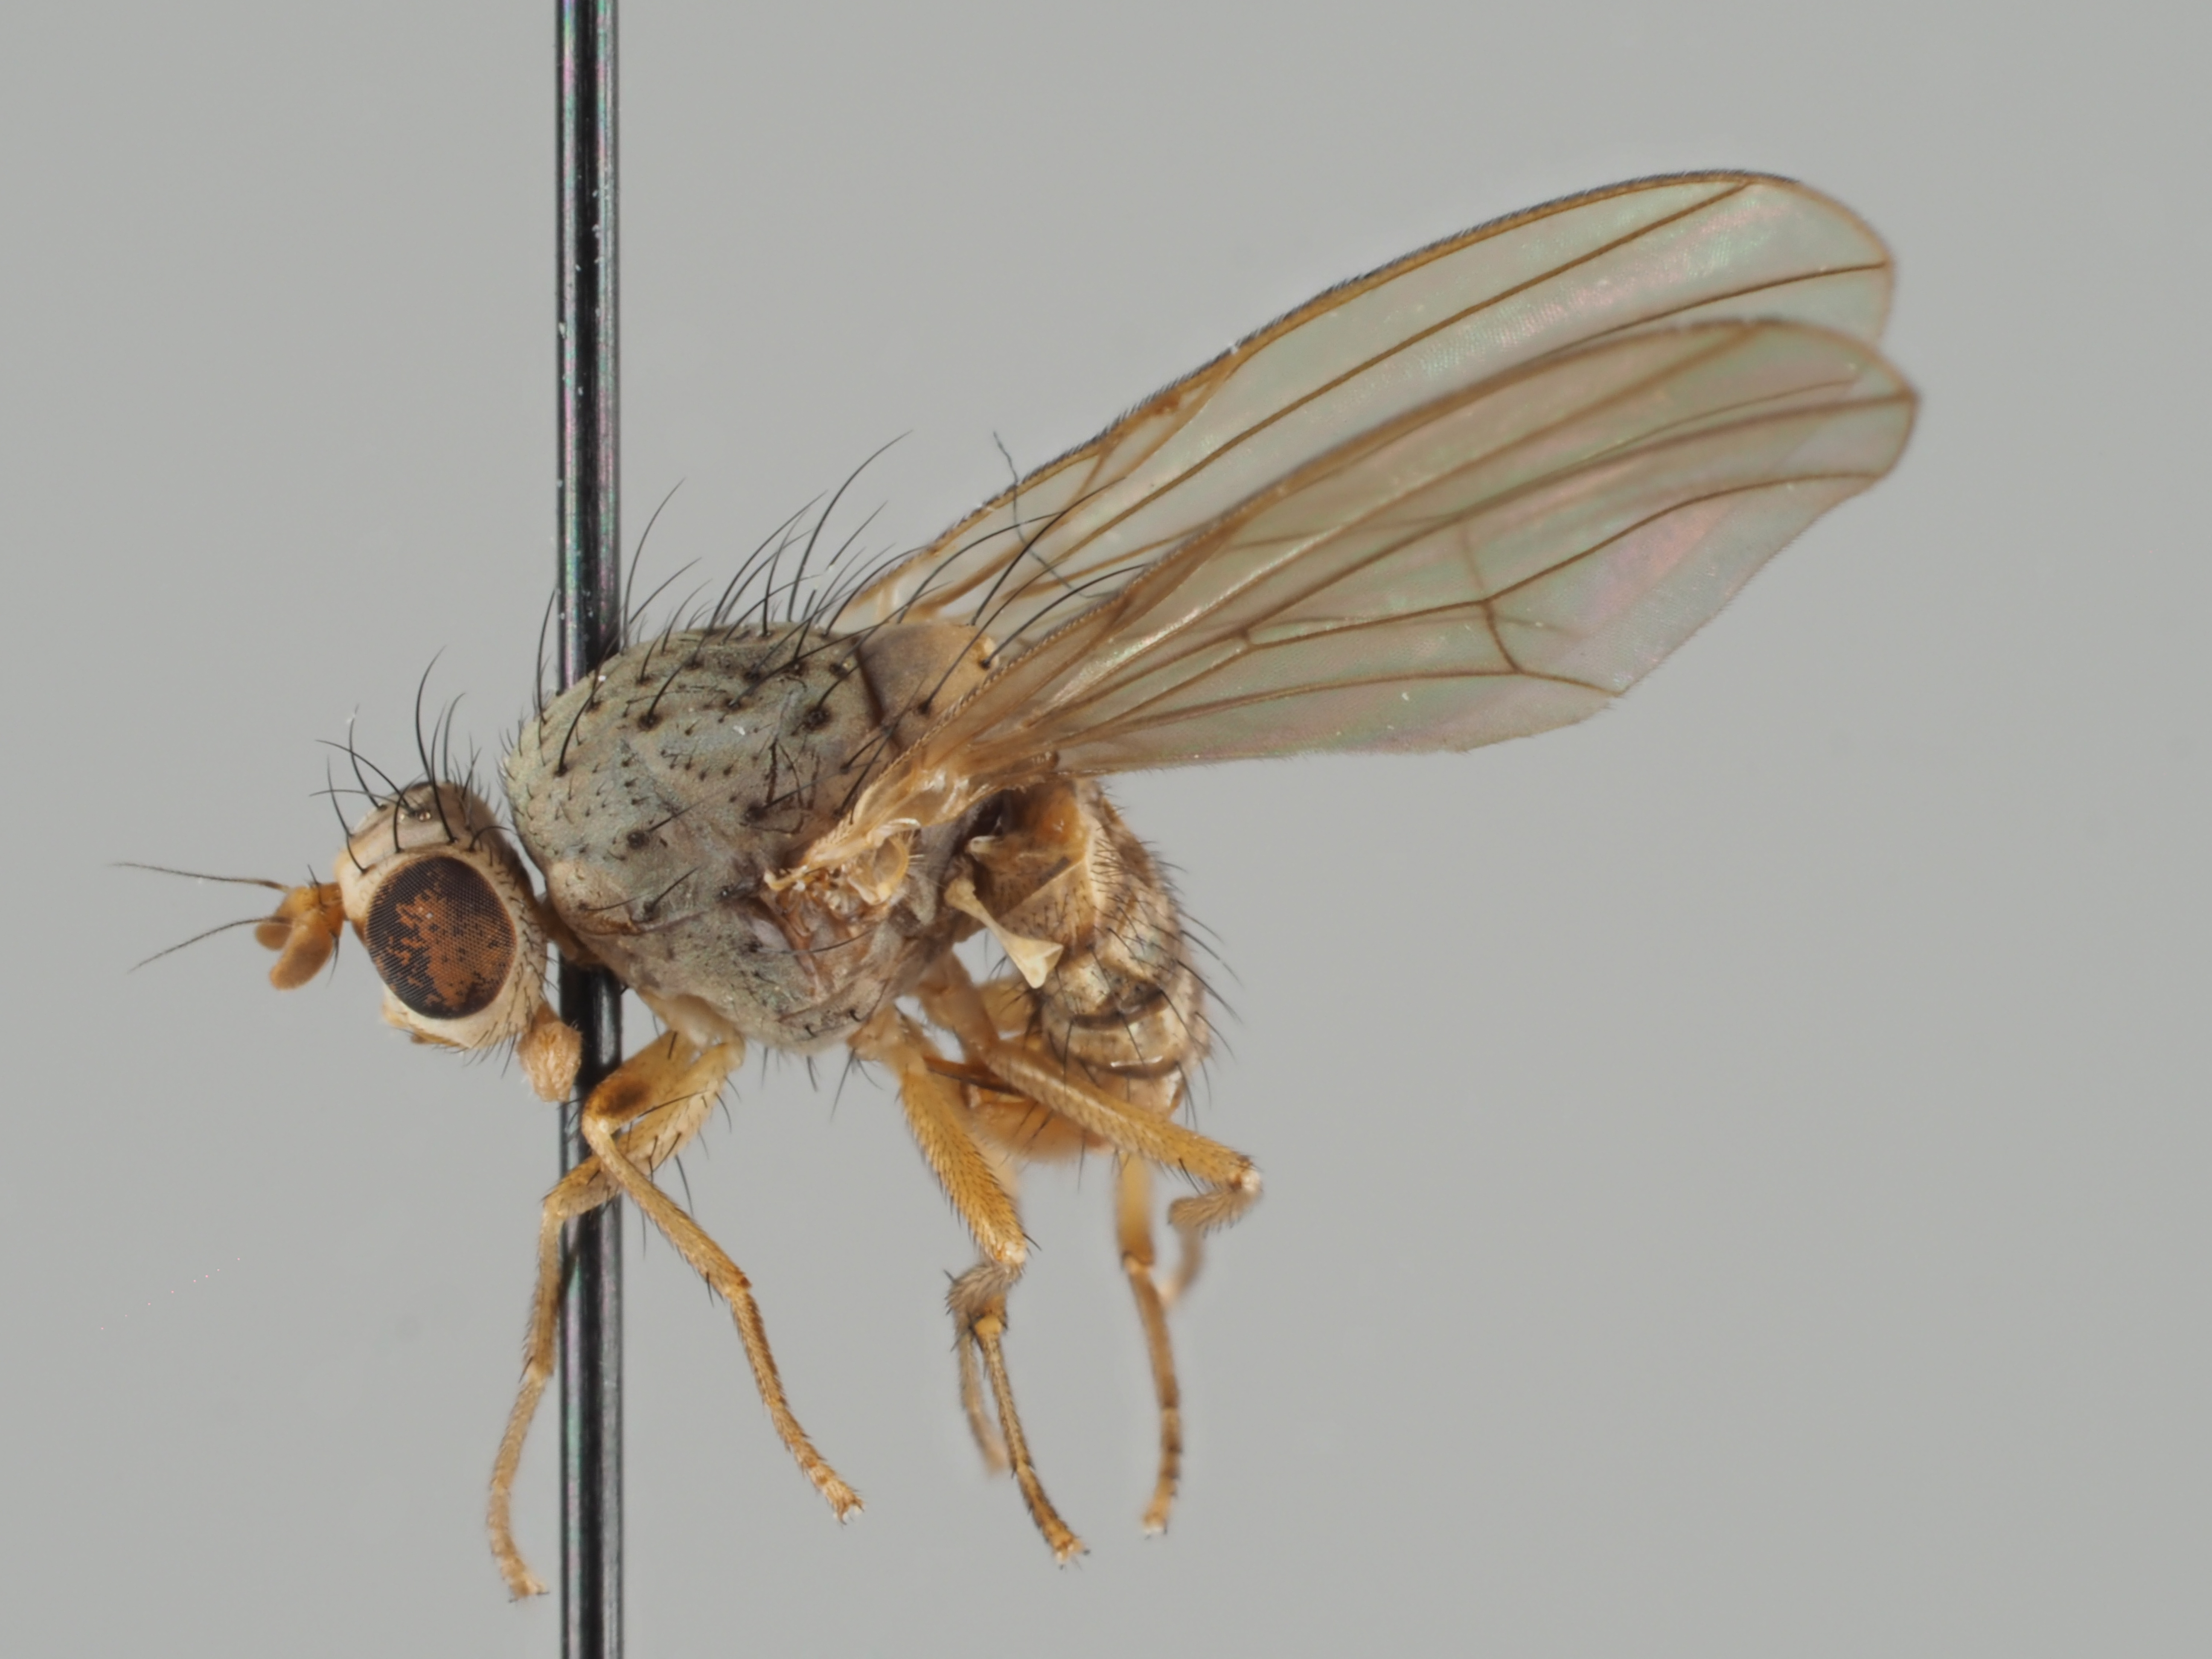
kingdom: Animalia
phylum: Arthropoda
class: Insecta
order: Diptera
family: Lauxaniidae
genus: Meiosimyza
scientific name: Meiosimyza stylata
